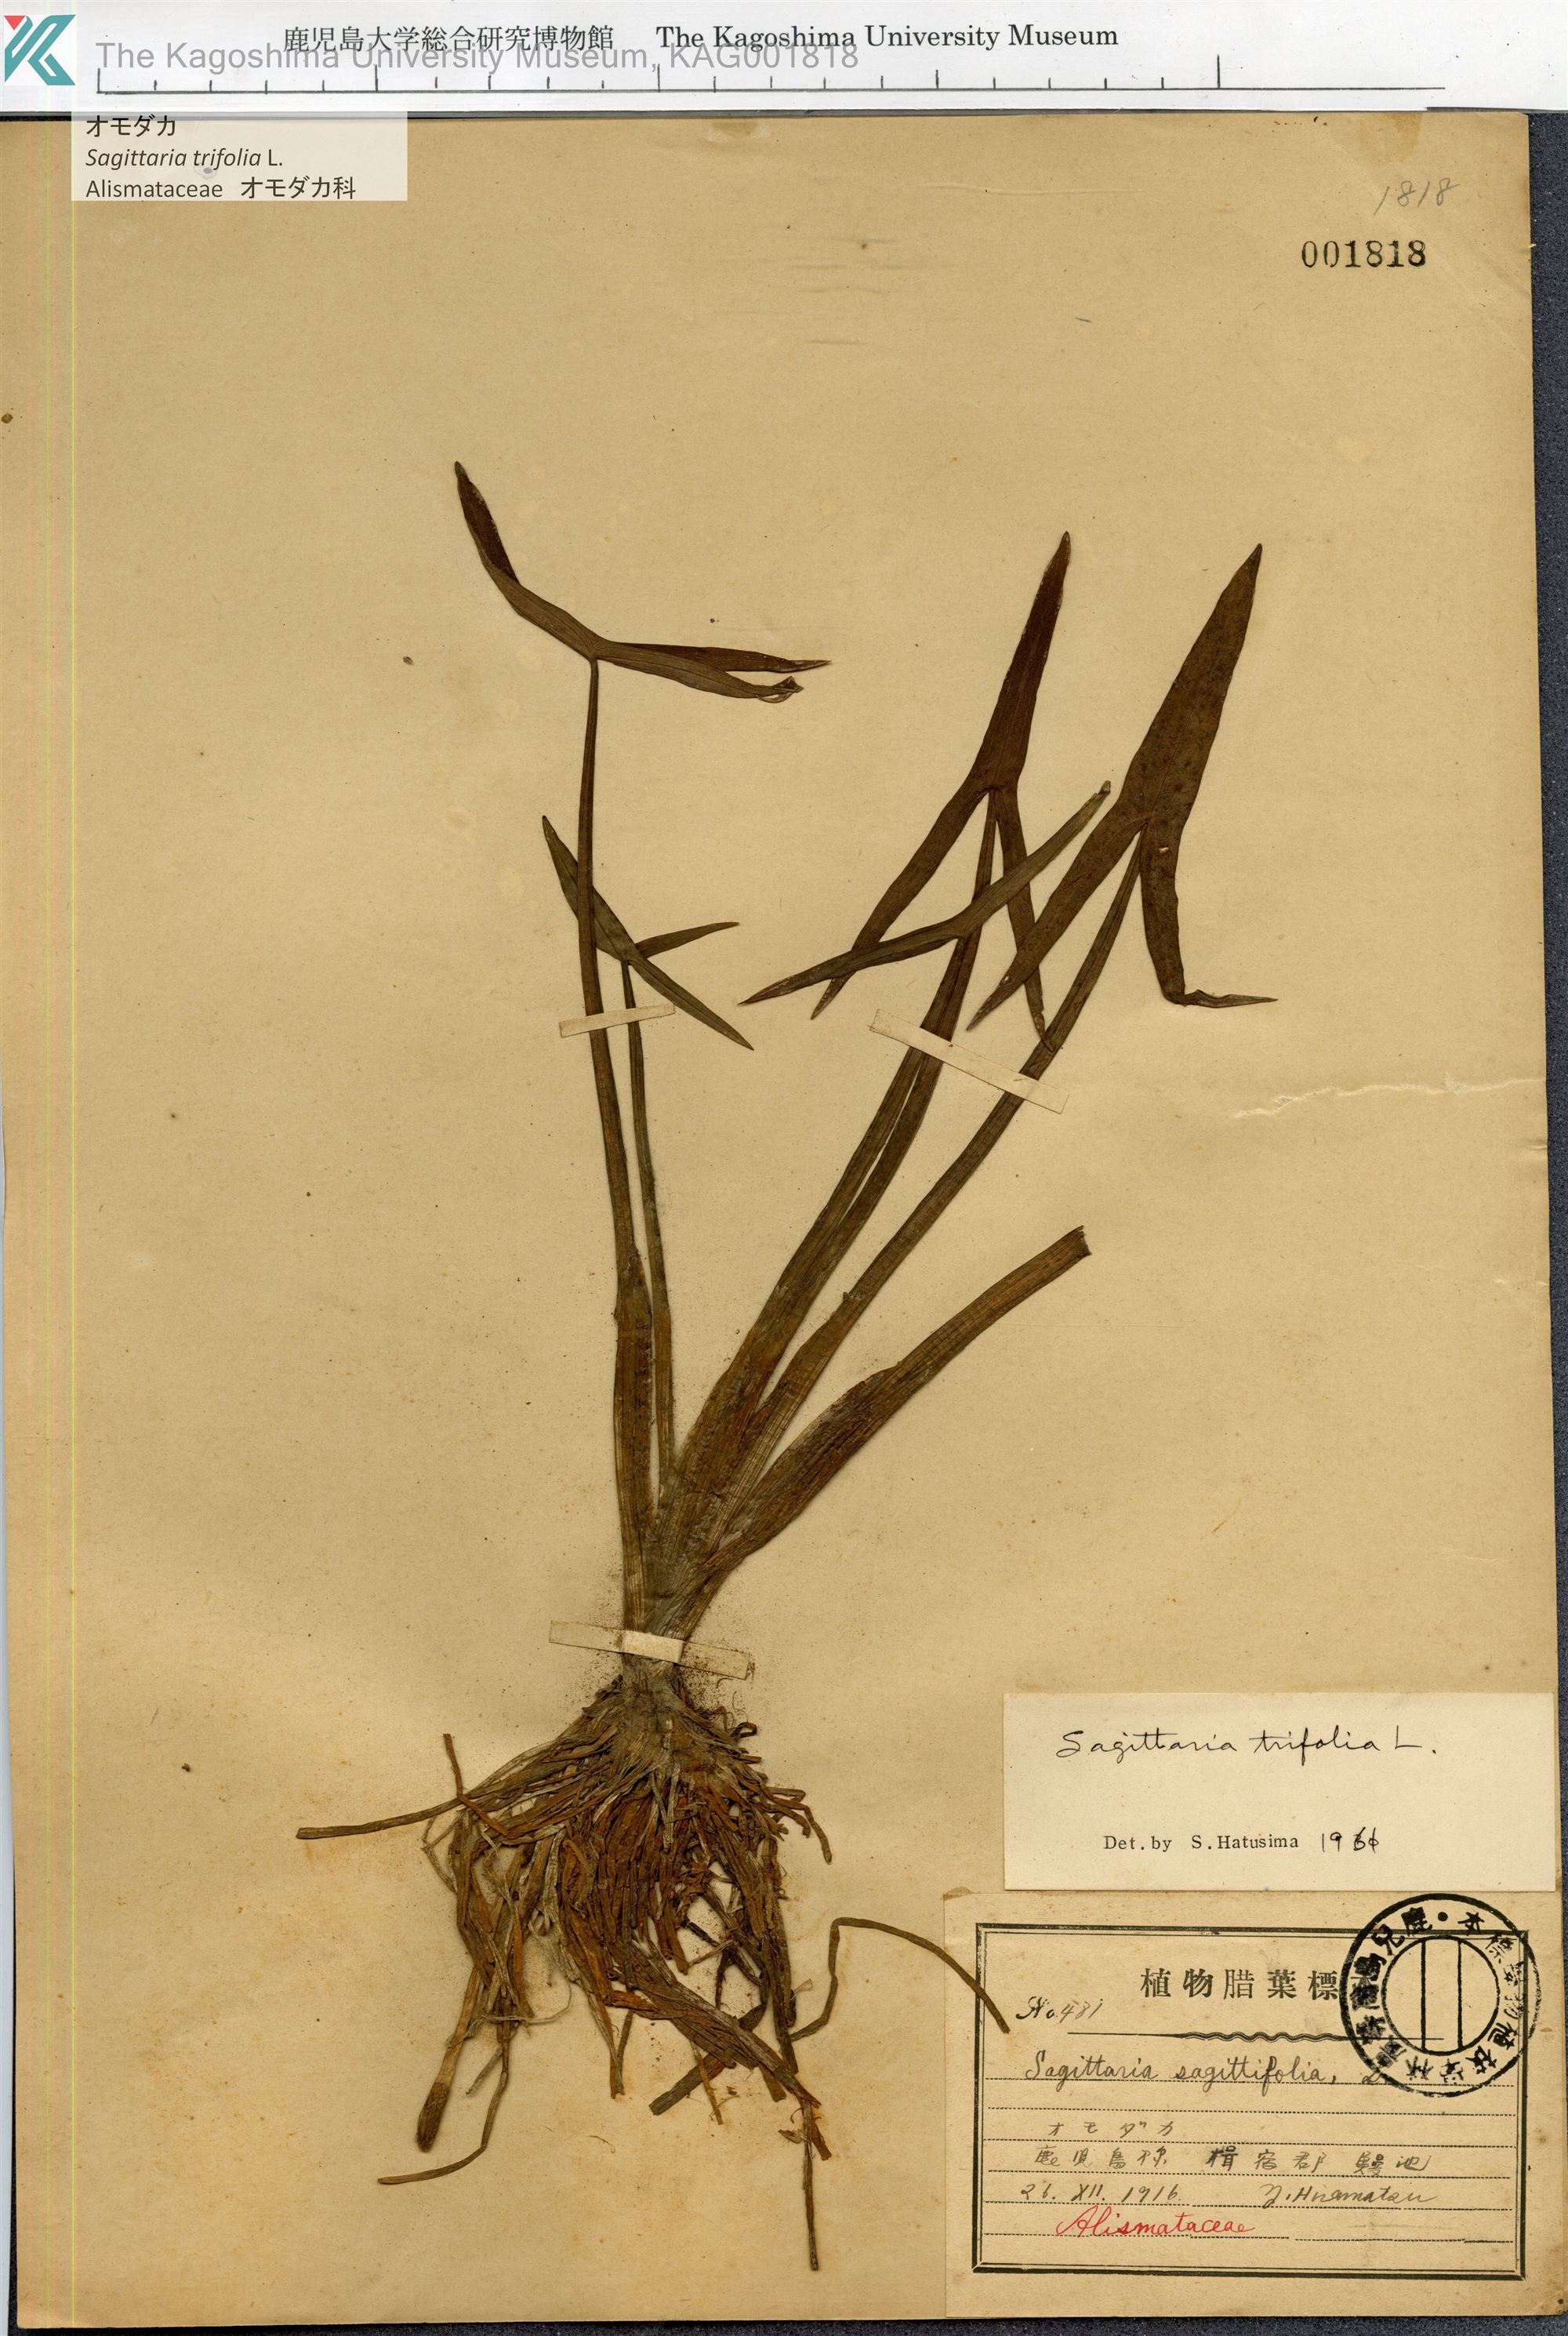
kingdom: Plantae
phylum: Tracheophyta
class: Liliopsida
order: Alismatales
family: Alismataceae
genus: Sagittaria
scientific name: Sagittaria trifolia
